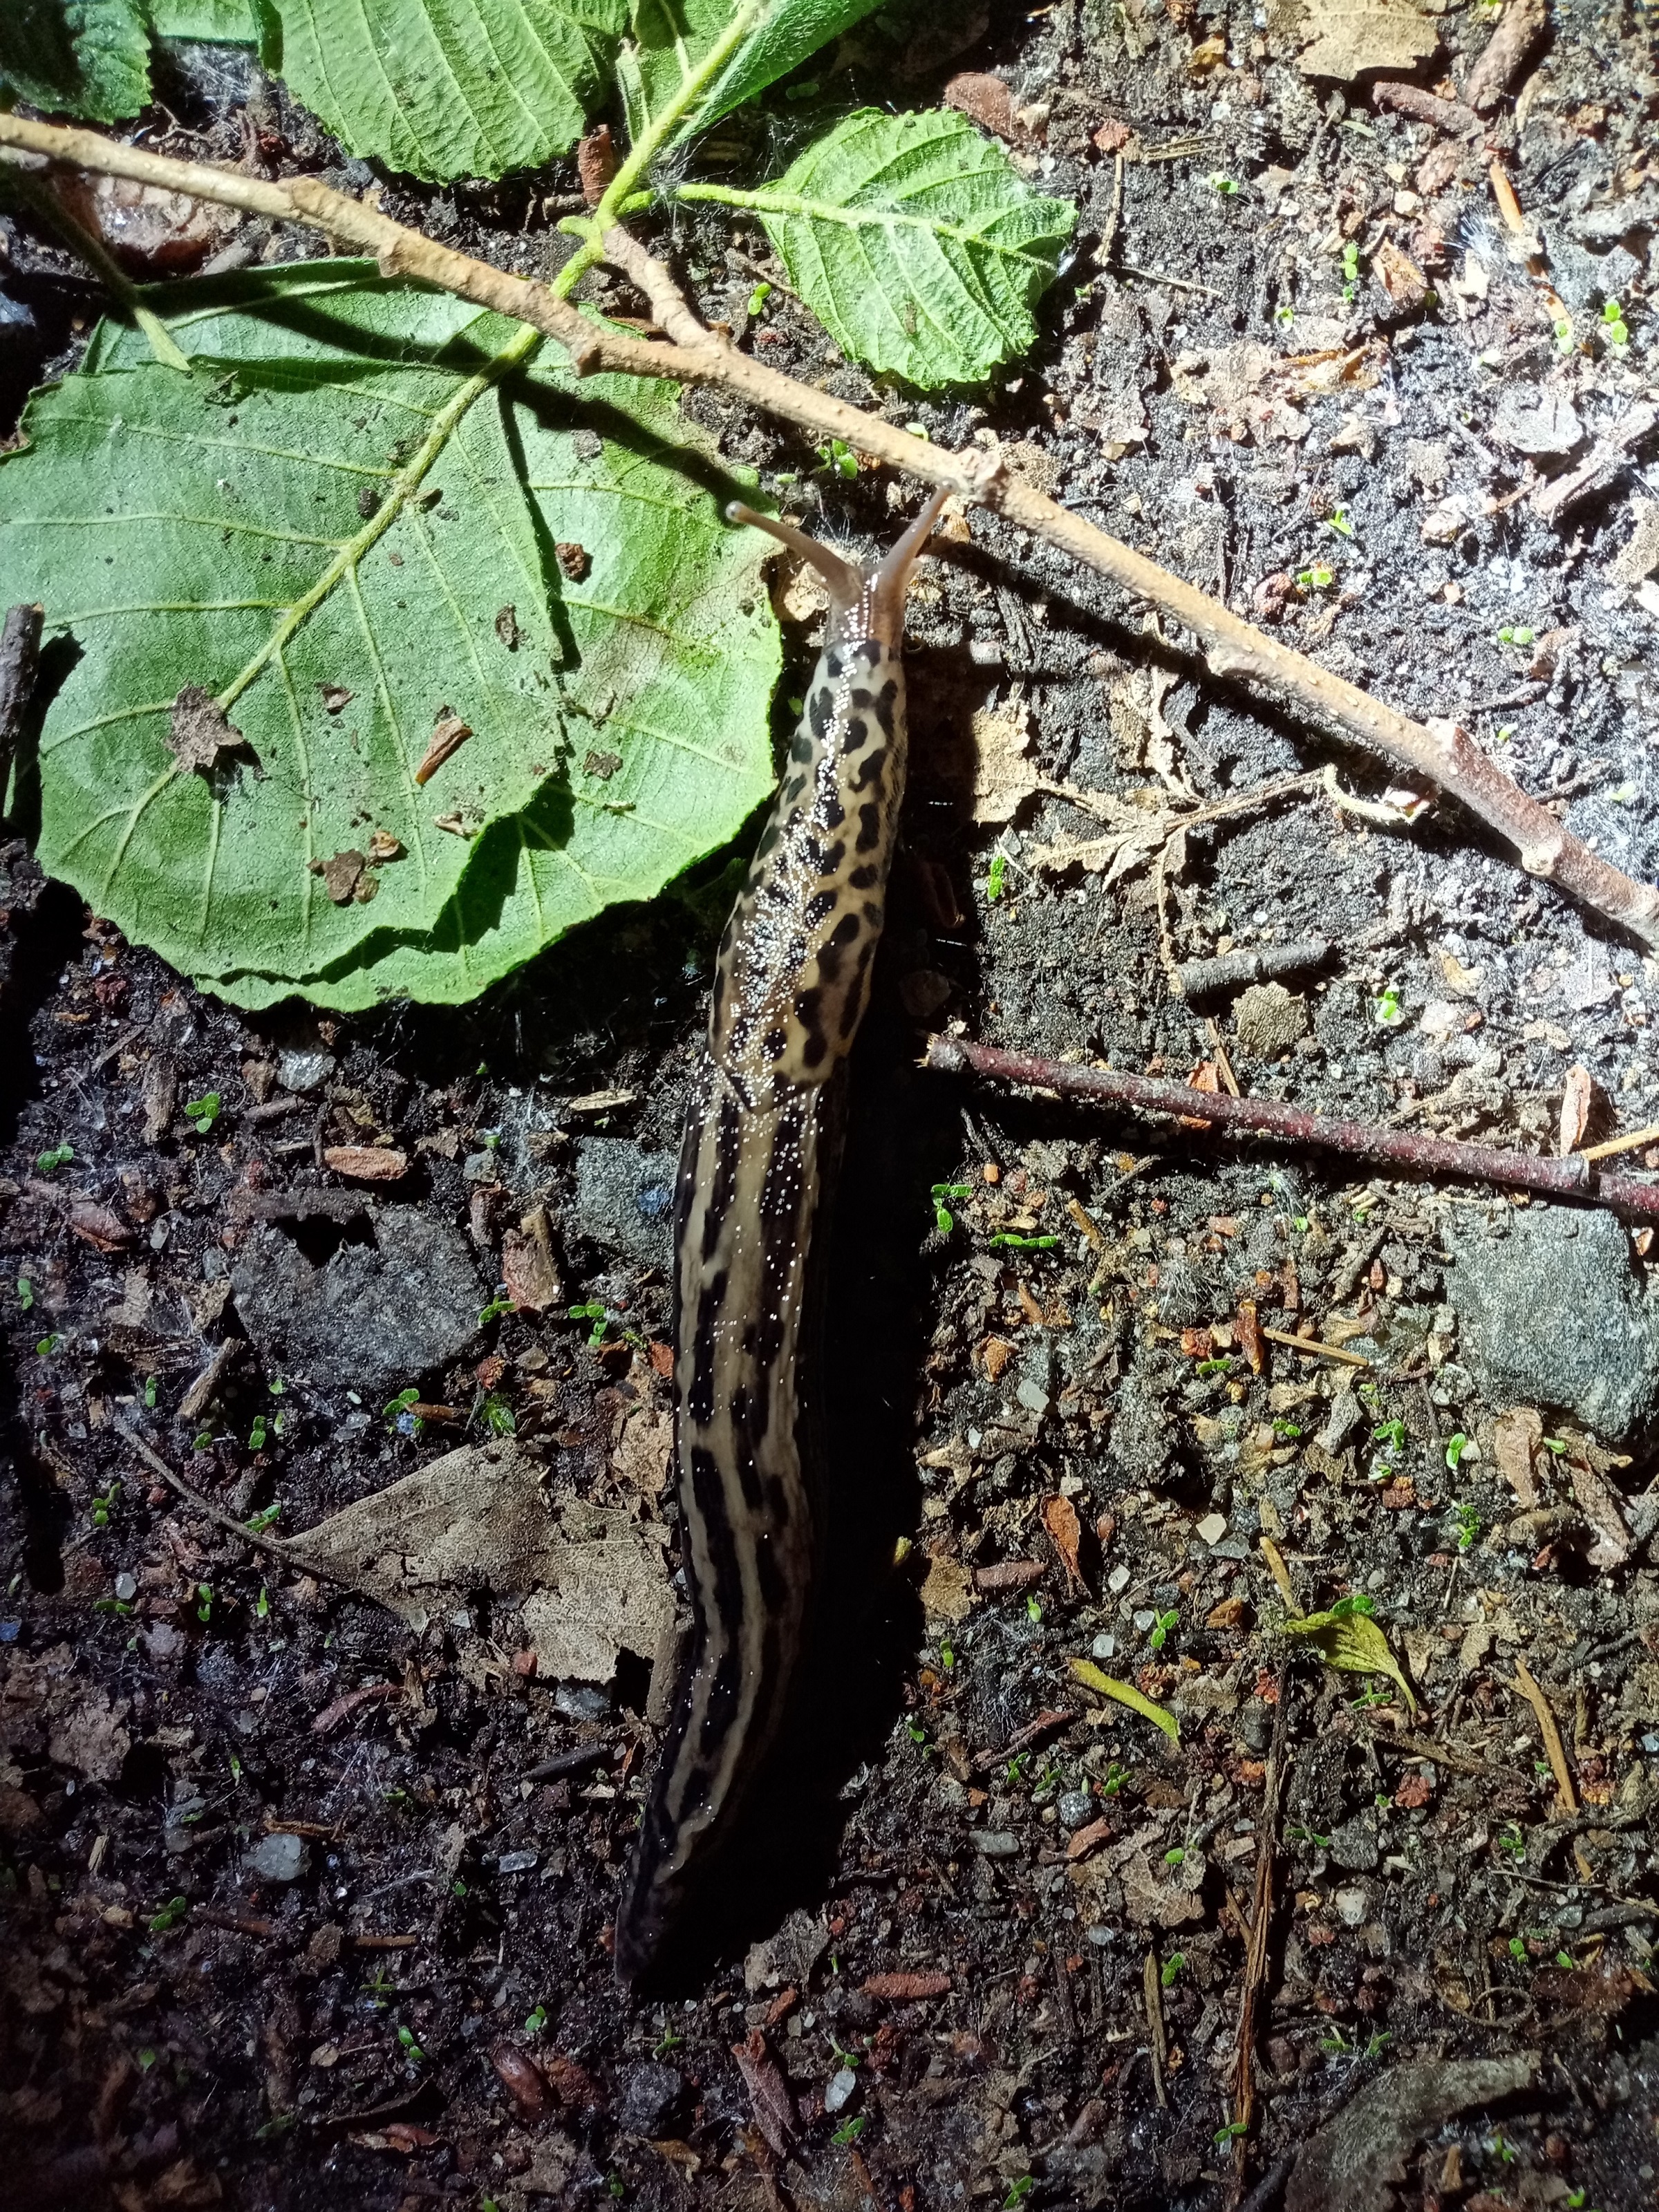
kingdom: Animalia
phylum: Mollusca
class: Gastropoda
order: Stylommatophora
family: Limacidae
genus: Limax
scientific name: Limax maximus
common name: Great grey slug
